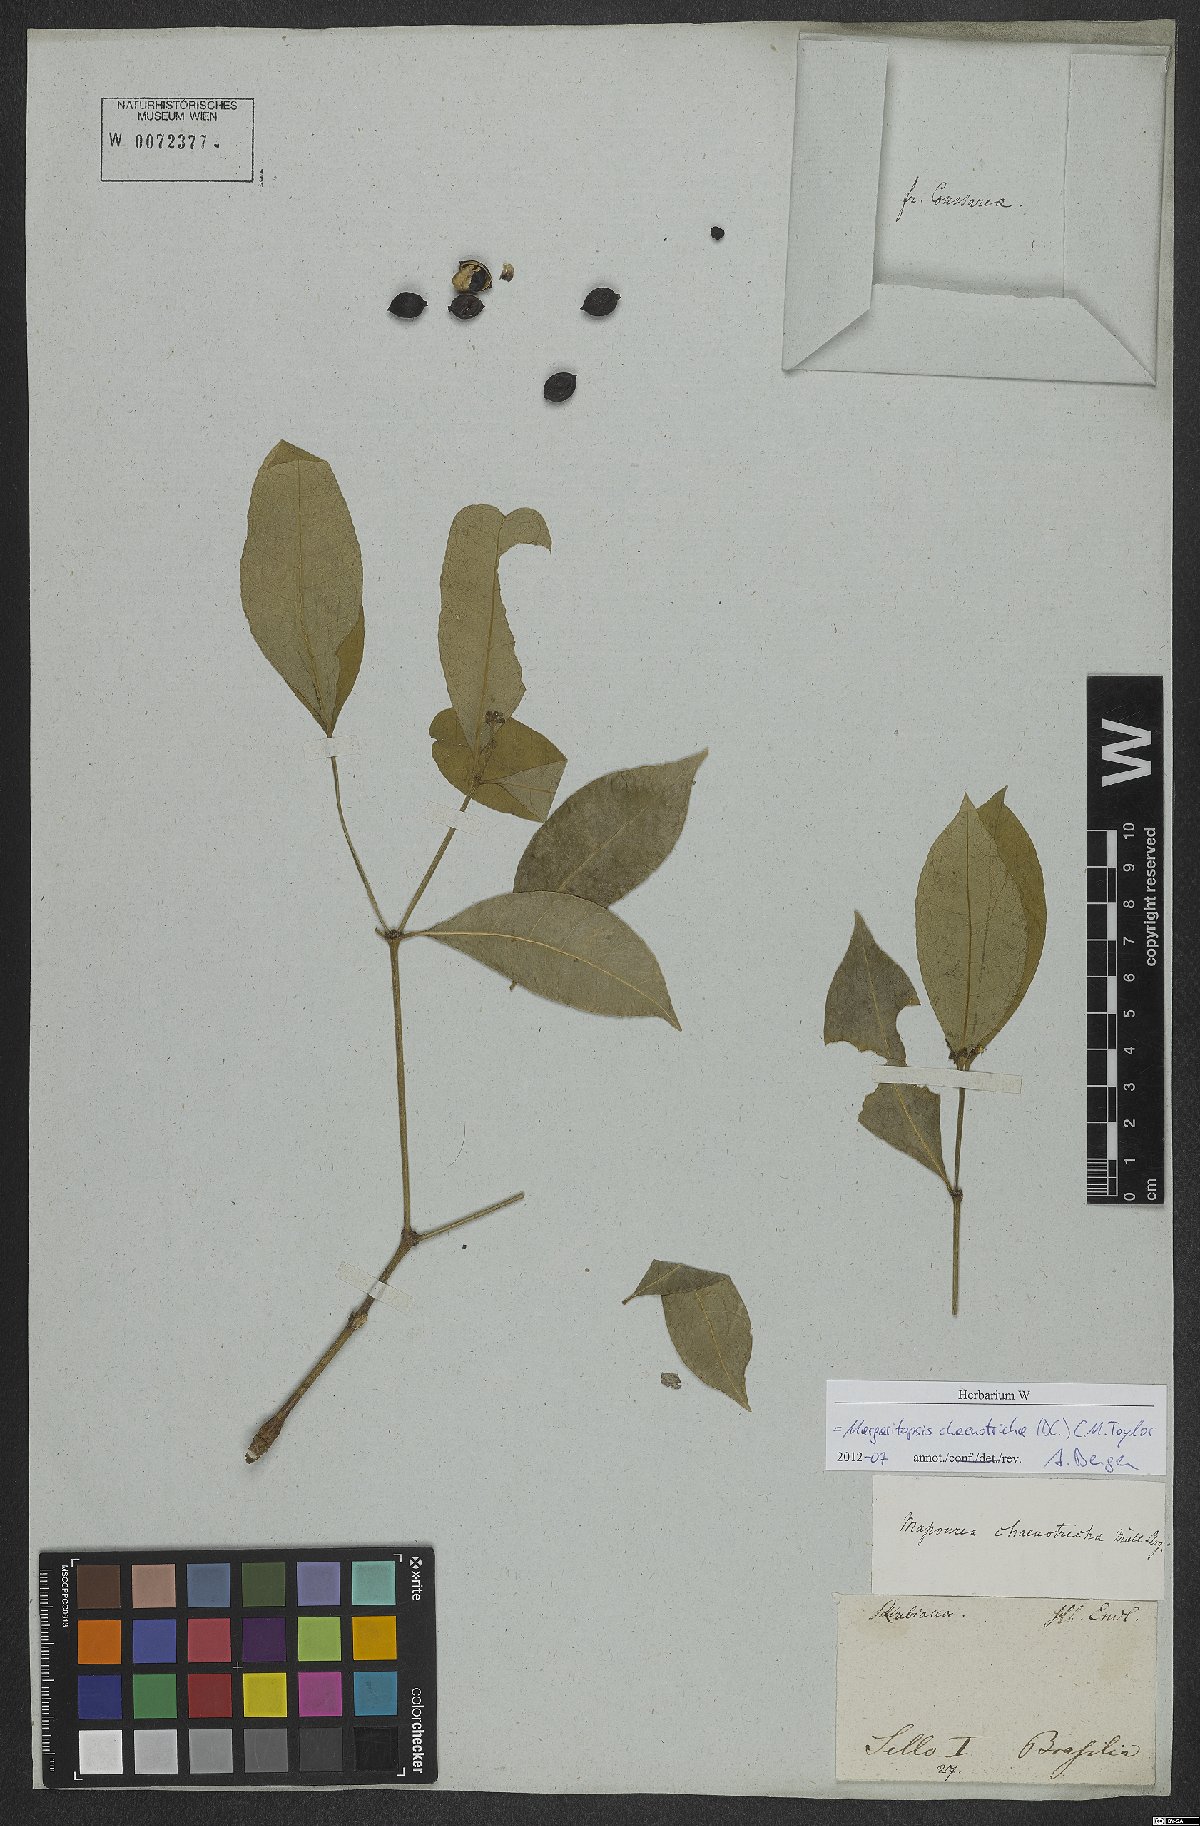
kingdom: Plantae
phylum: Tracheophyta
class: Magnoliopsida
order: Gentianales
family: Rubiaceae
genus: Eumachia
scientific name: Eumachia chaenotricha
